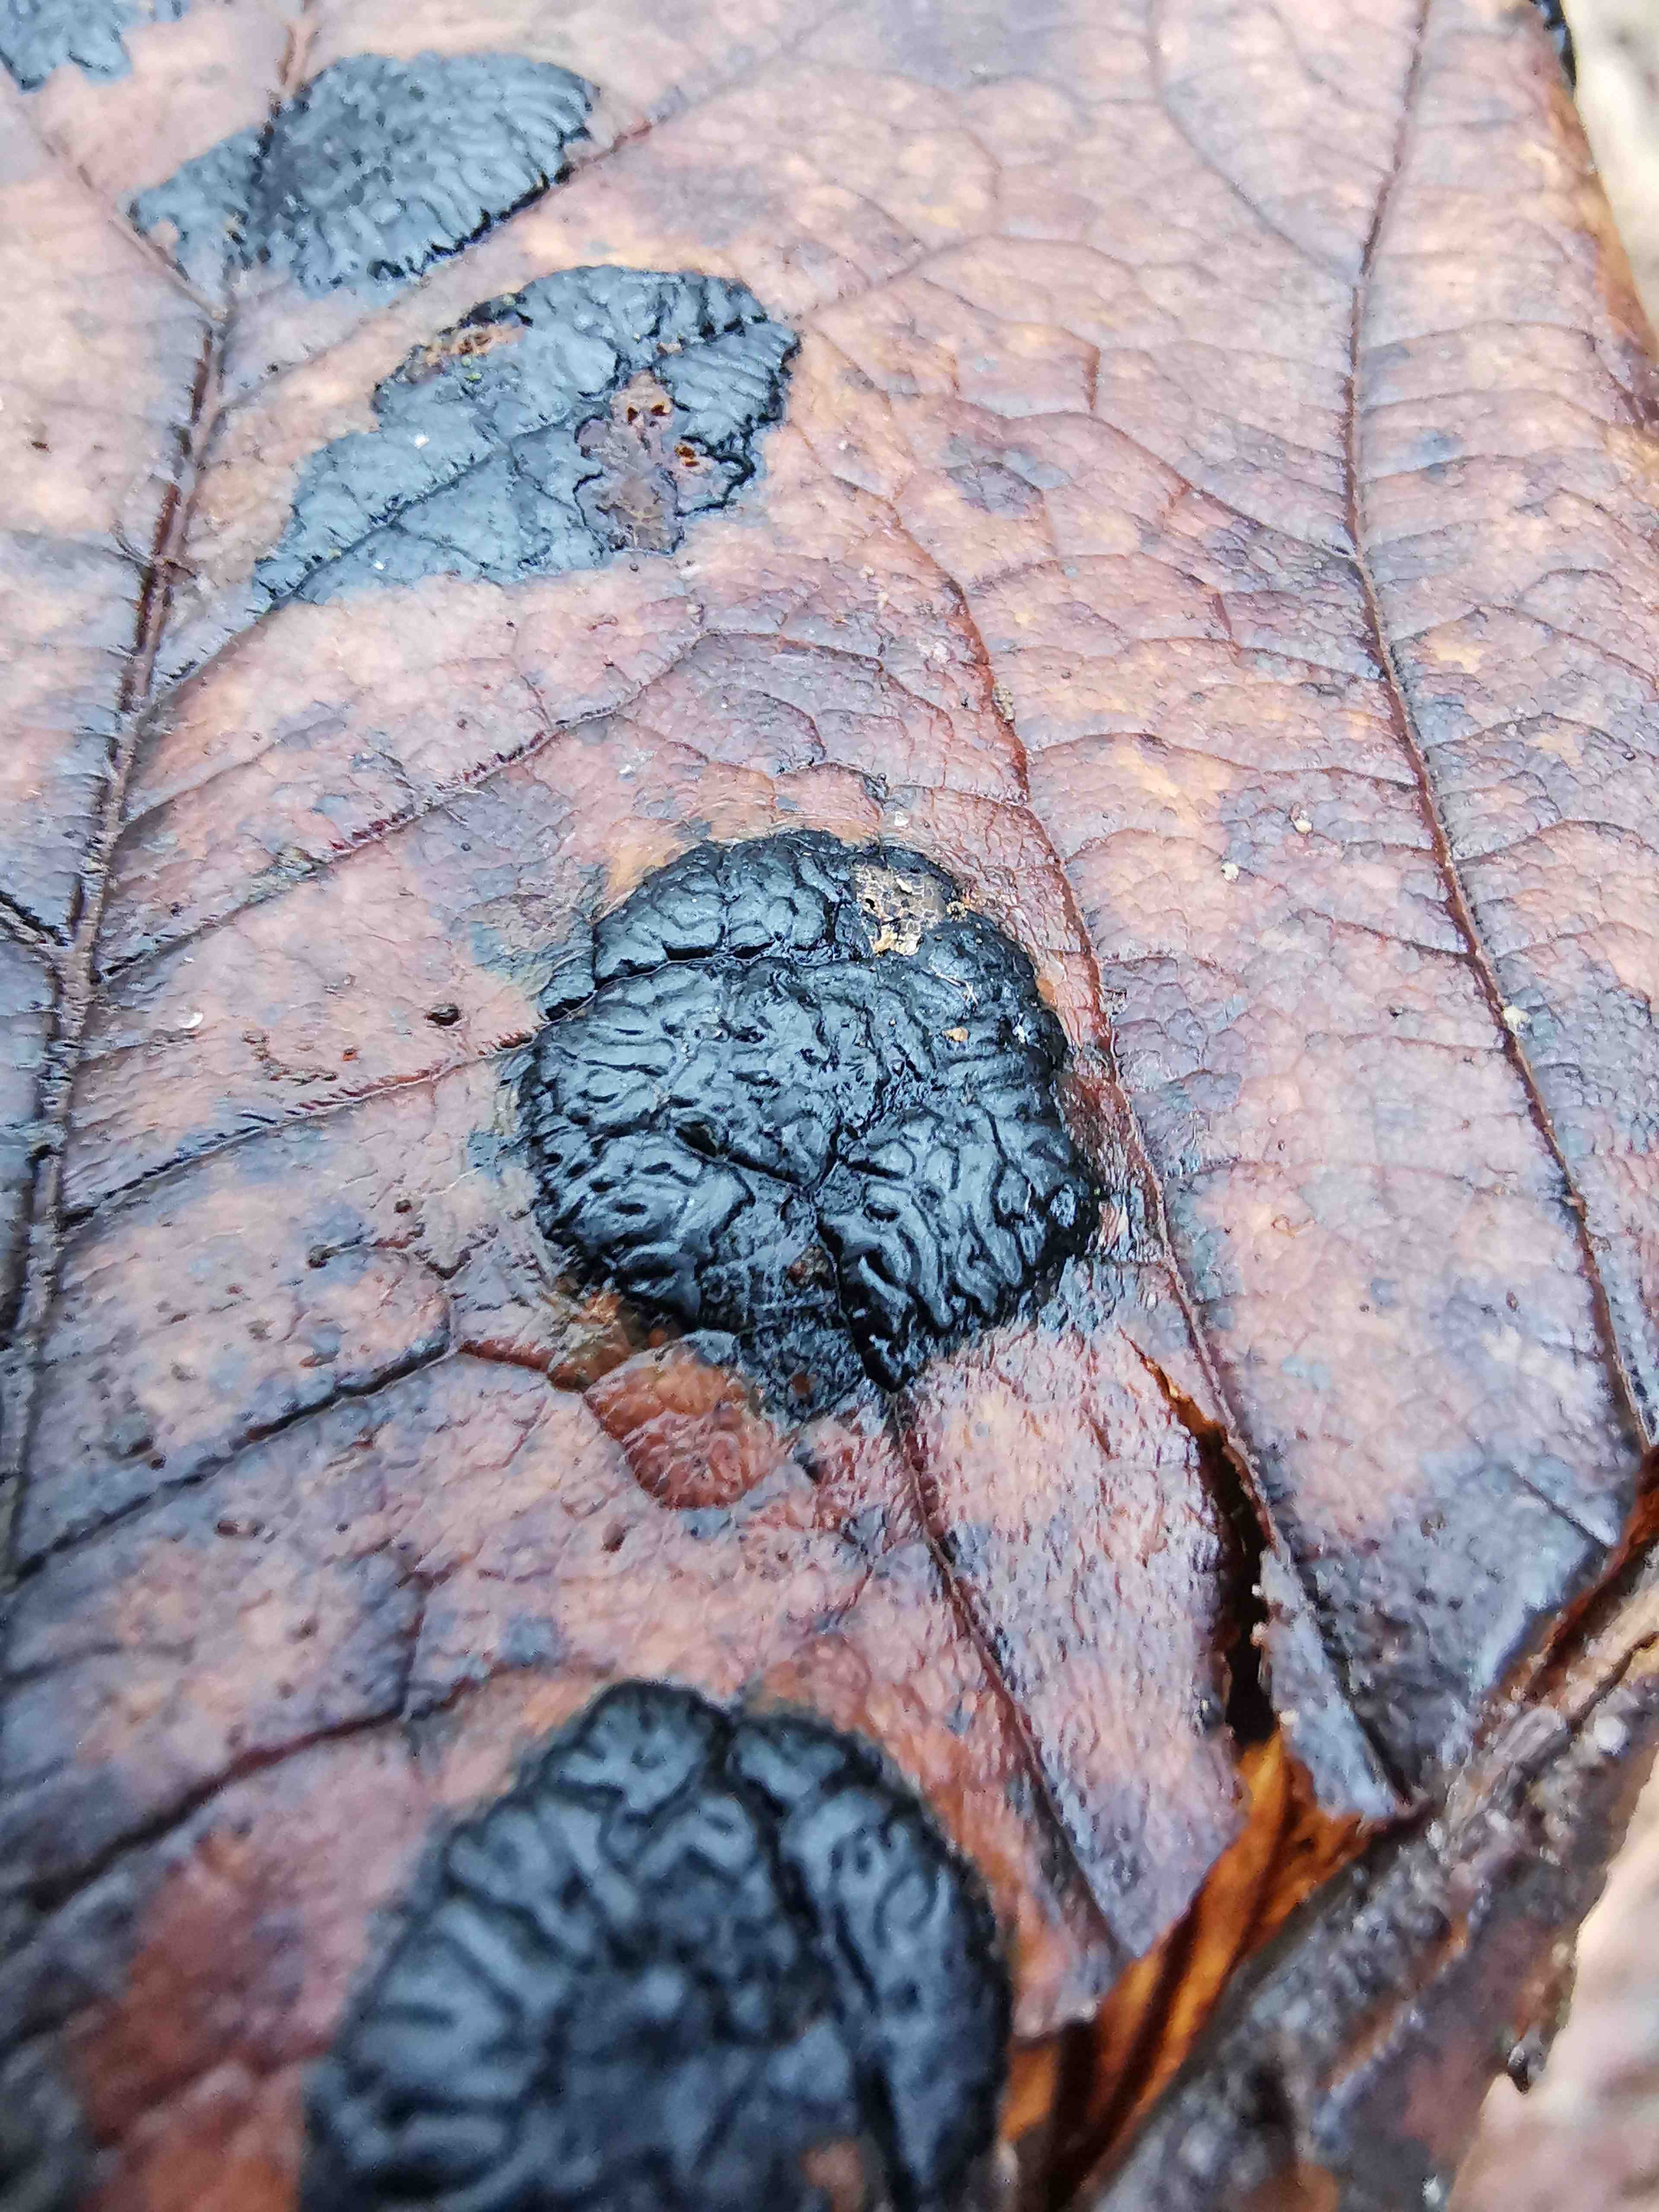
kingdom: Fungi
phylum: Ascomycota
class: Leotiomycetes
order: Rhytismatales
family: Rhytismataceae
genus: Rhytisma
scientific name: Rhytisma acerinum
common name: ahorn-rynkeplet
